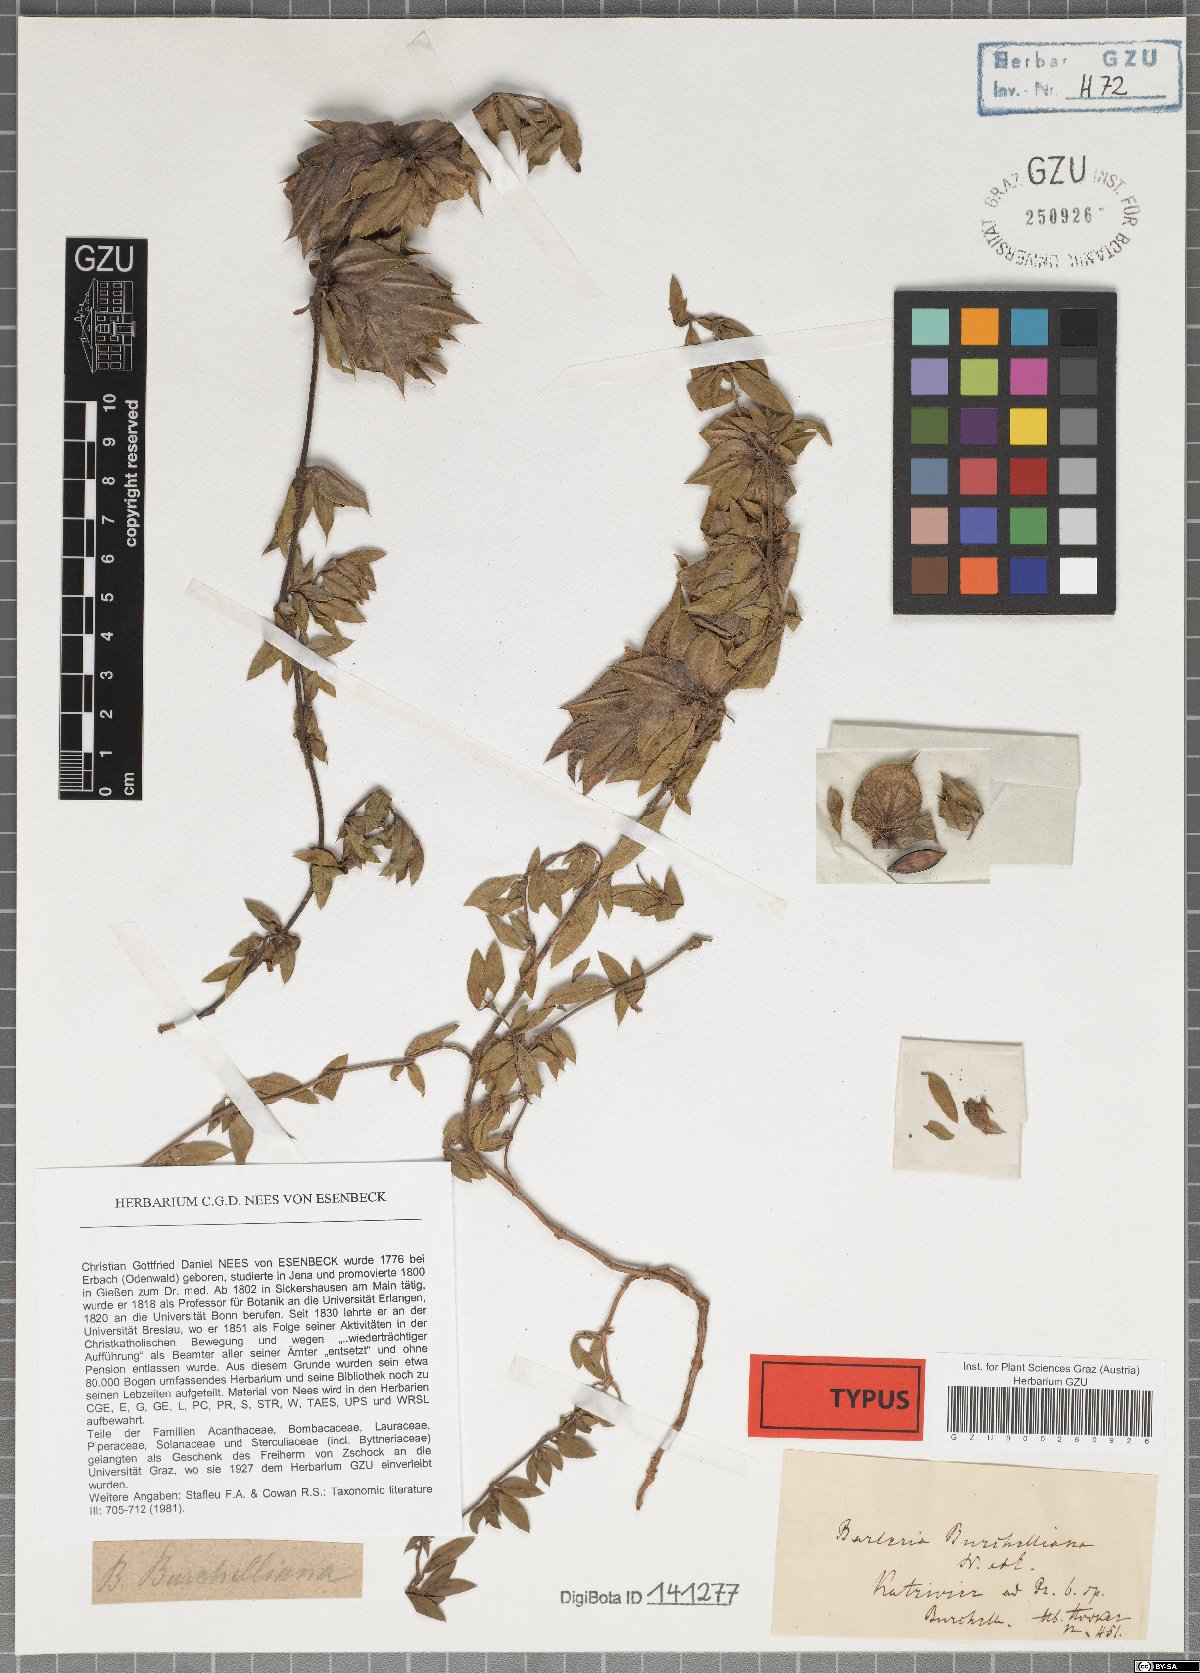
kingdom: Plantae
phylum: Tracheophyta
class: Magnoliopsida
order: Lamiales
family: Acanthaceae
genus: Barleria
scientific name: Barleria macrostegia
